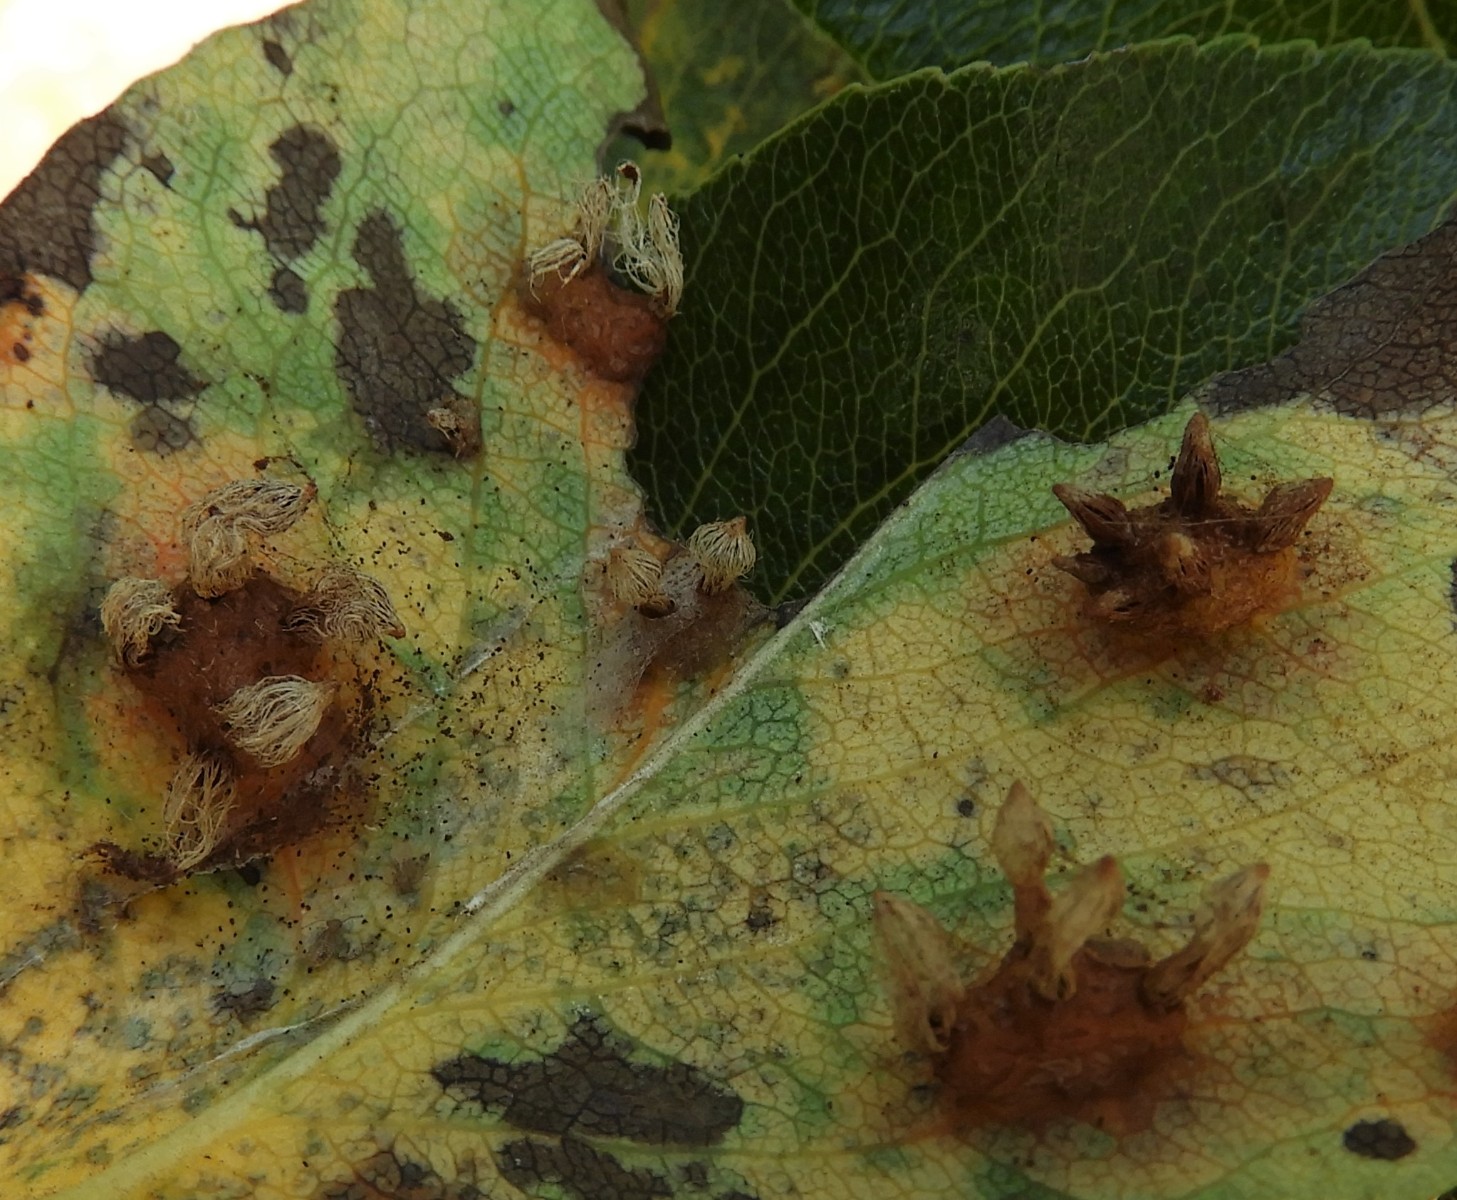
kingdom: Fungi
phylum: Basidiomycota
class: Pucciniomycetes
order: Pucciniales
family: Gymnosporangiaceae
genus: Gymnosporangium
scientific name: Gymnosporangium sabinae
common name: pæregitter-bævrerust
